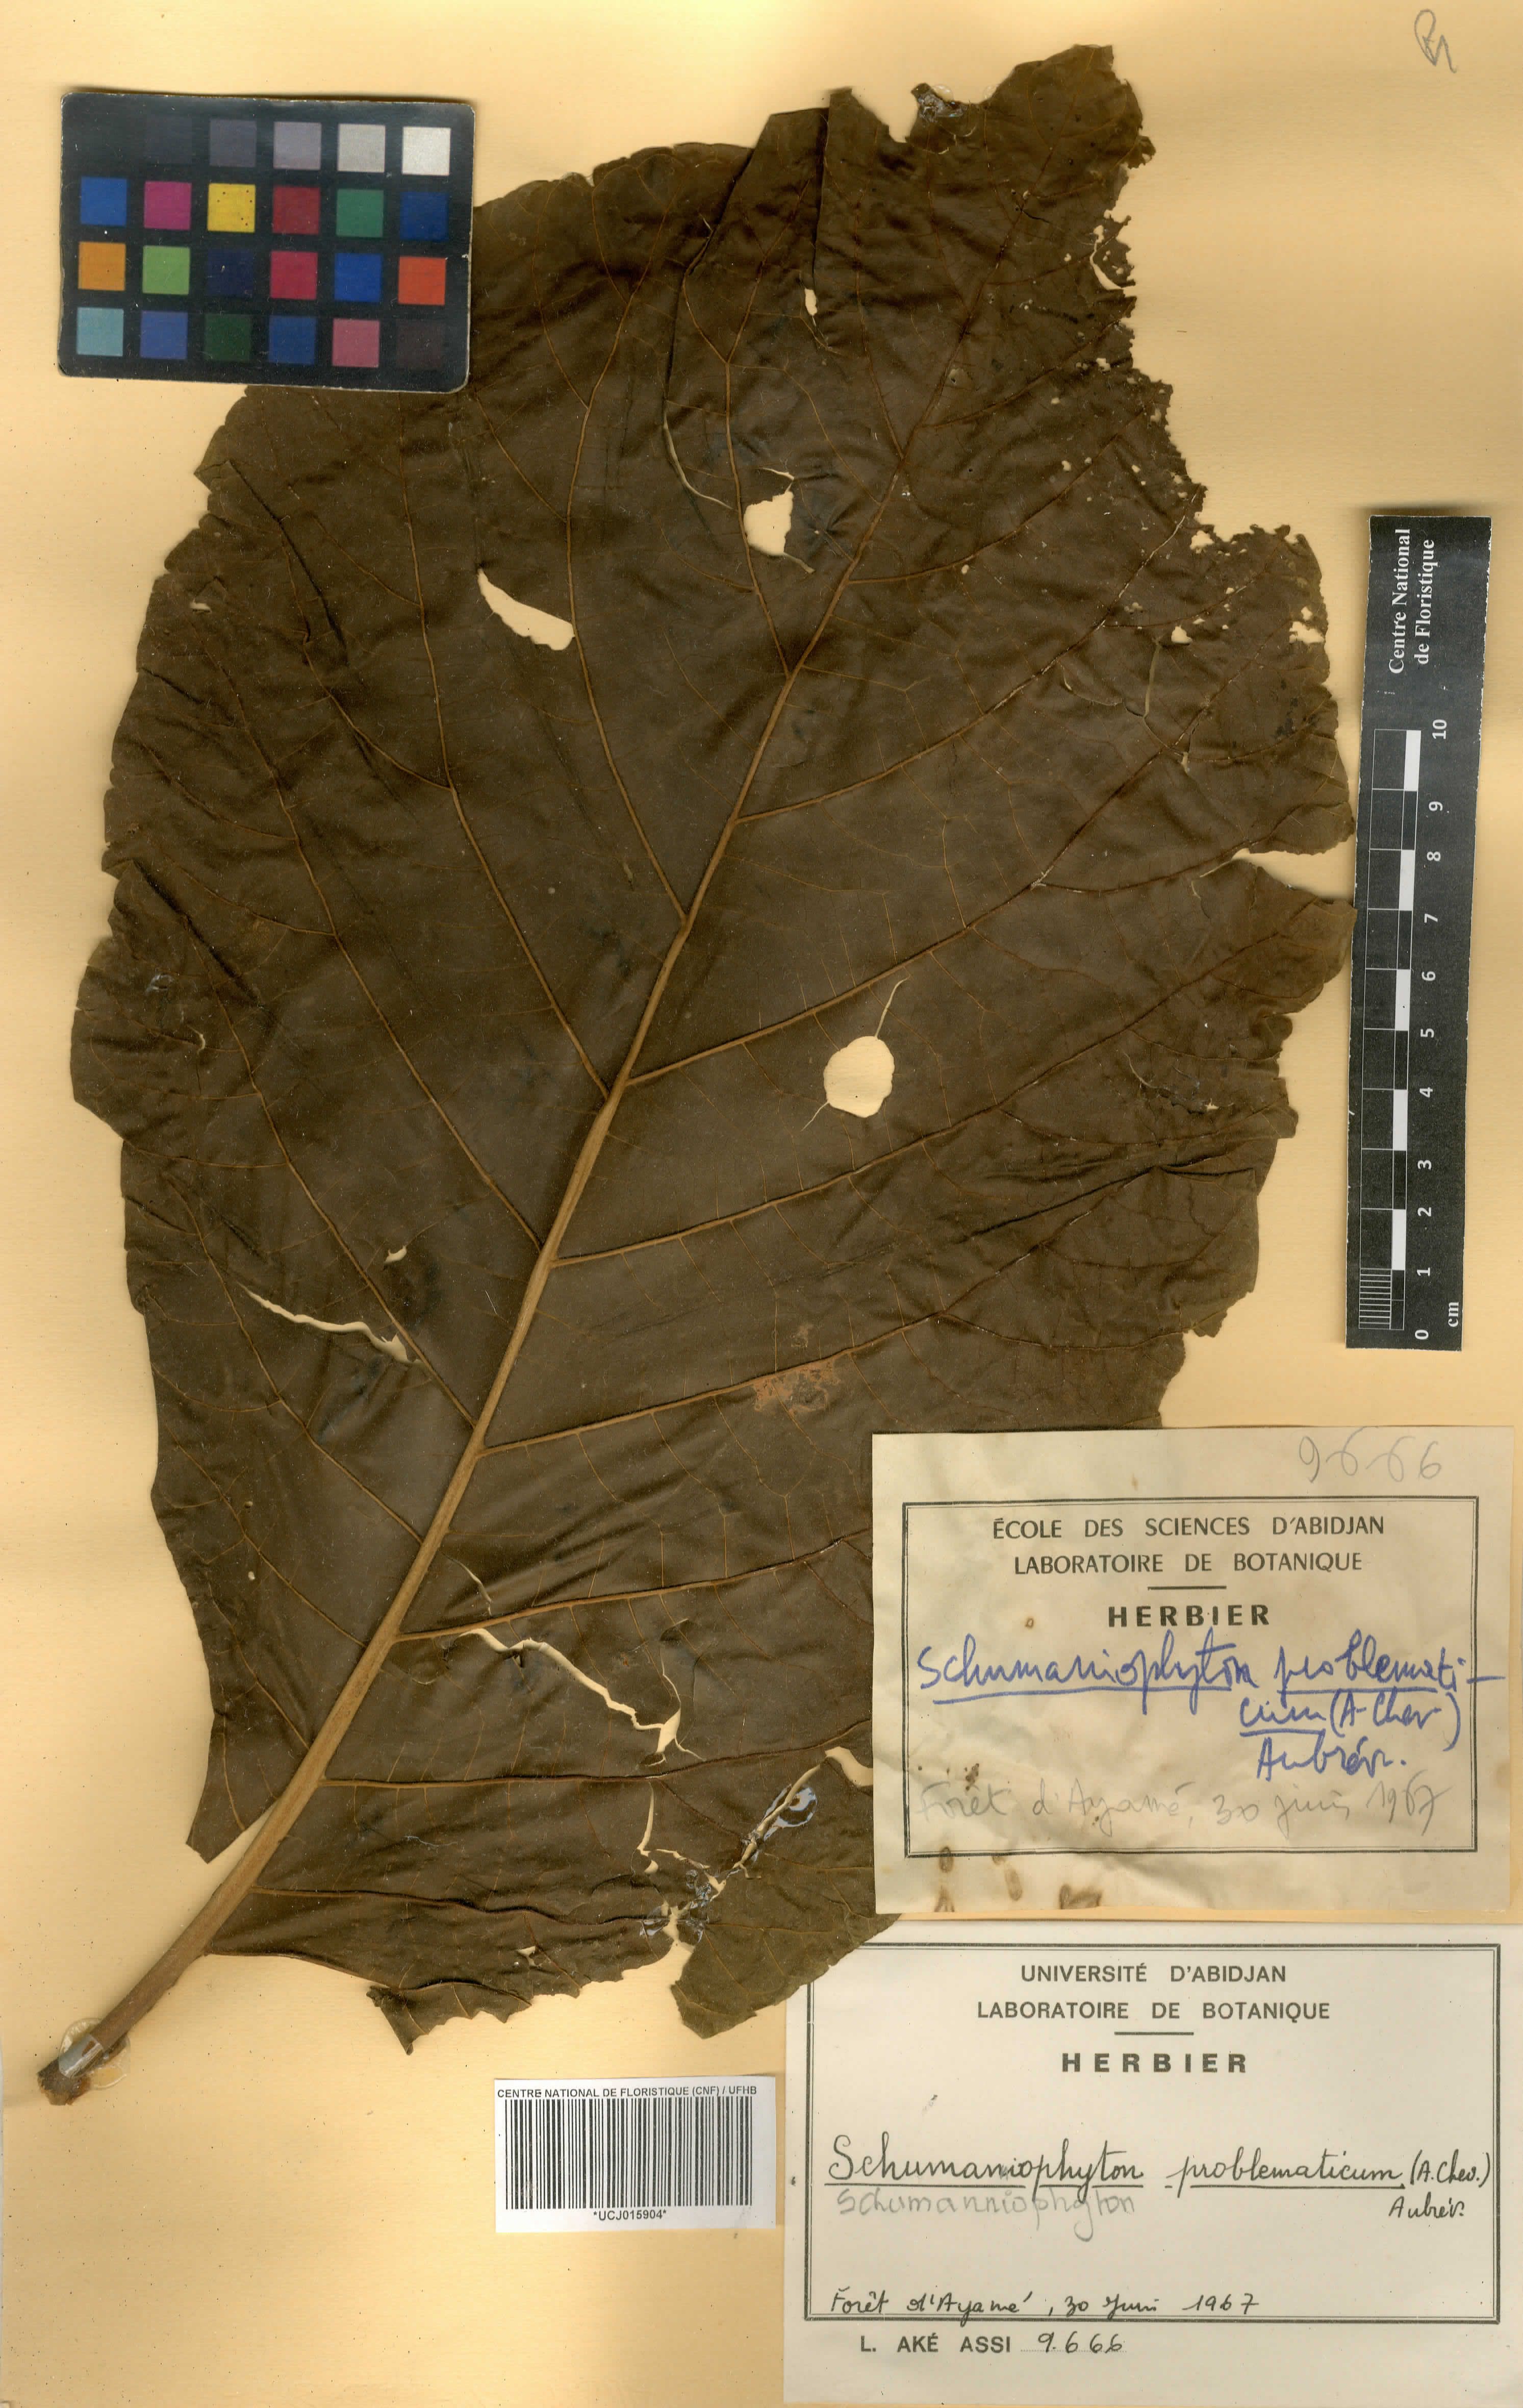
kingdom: Plantae
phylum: Tracheophyta
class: Magnoliopsida
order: Gentianales
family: Rubiaceae
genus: Schumanniophyton
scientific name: Schumanniophyton problematicum
